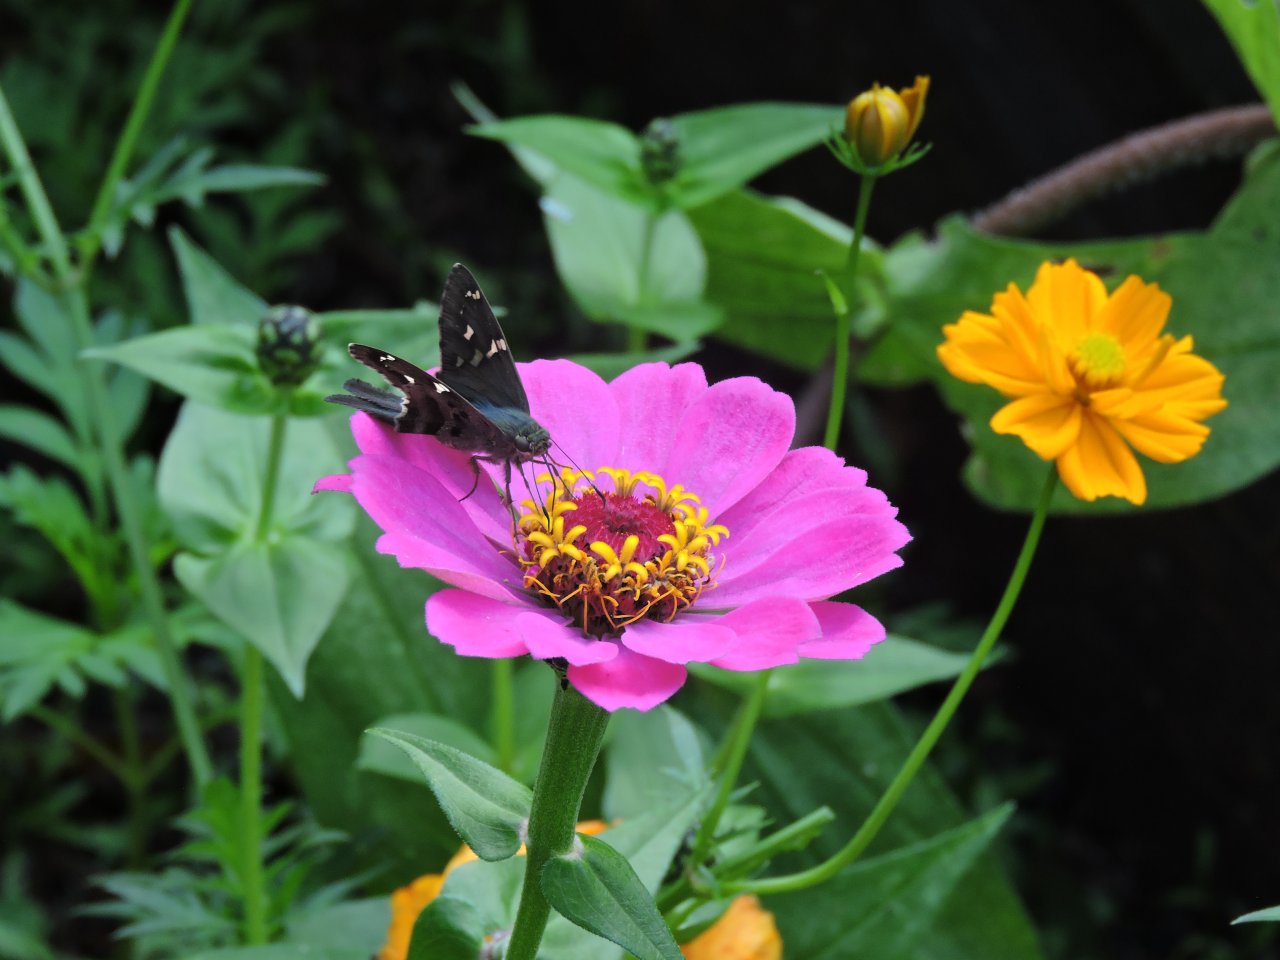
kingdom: Animalia
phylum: Arthropoda
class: Insecta
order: Lepidoptera
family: Hesperiidae
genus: Urbanus
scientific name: Urbanus proteus
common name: Long-tailed Skipper
